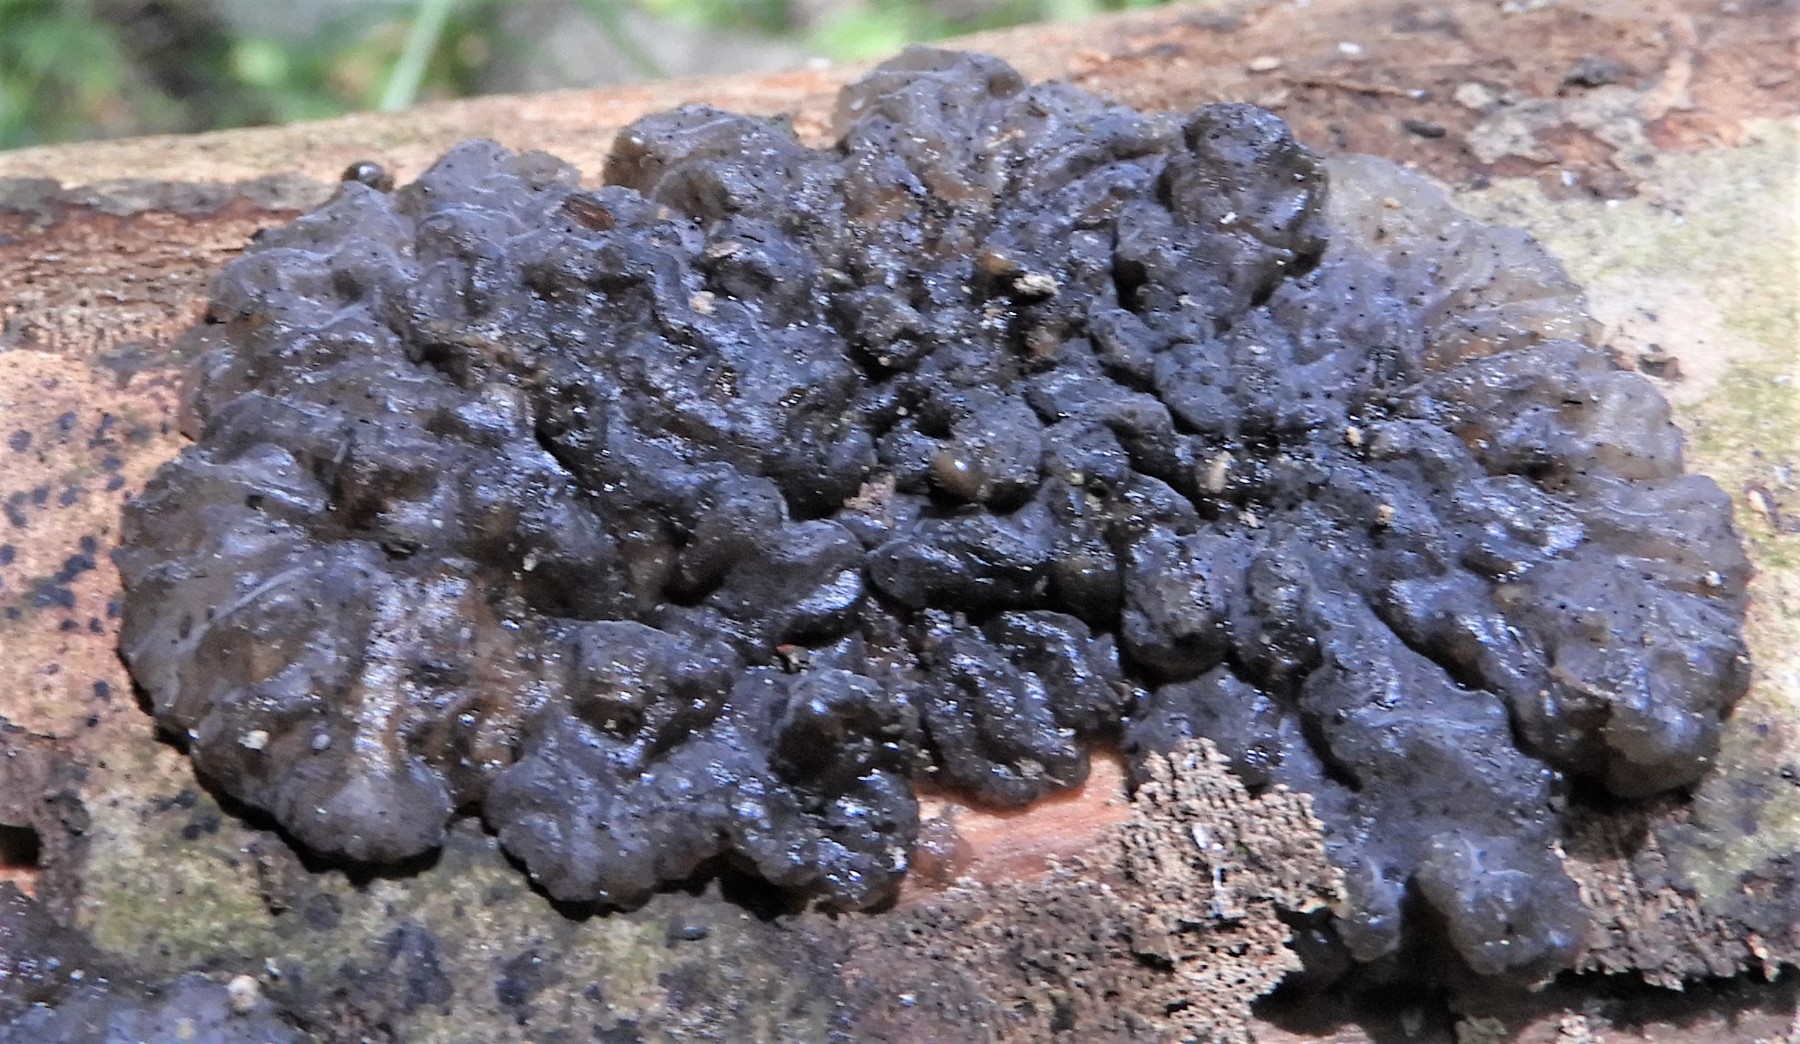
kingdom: Fungi
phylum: Basidiomycota
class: Agaricomycetes
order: Auriculariales
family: Auriculariaceae
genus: Exidia
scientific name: Exidia nigricans
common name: almindelig bævretop
